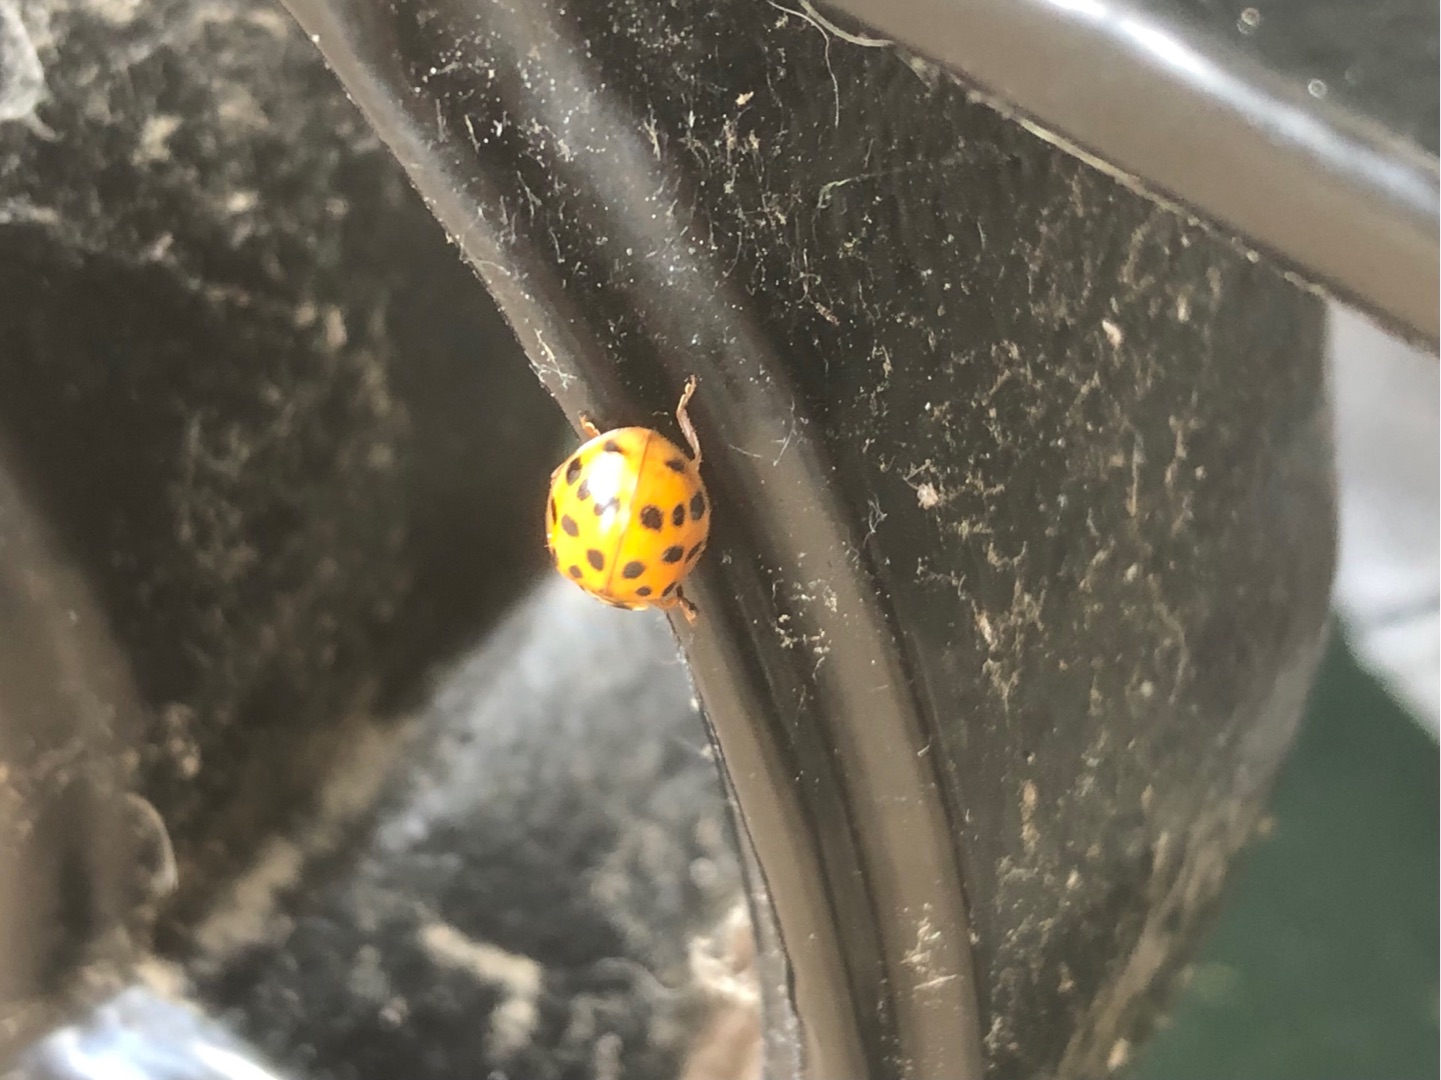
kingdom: Animalia
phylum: Arthropoda
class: Insecta
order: Coleoptera
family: Coccinellidae
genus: Harmonia
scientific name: Harmonia axyridis
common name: Harlekinmariehøne
